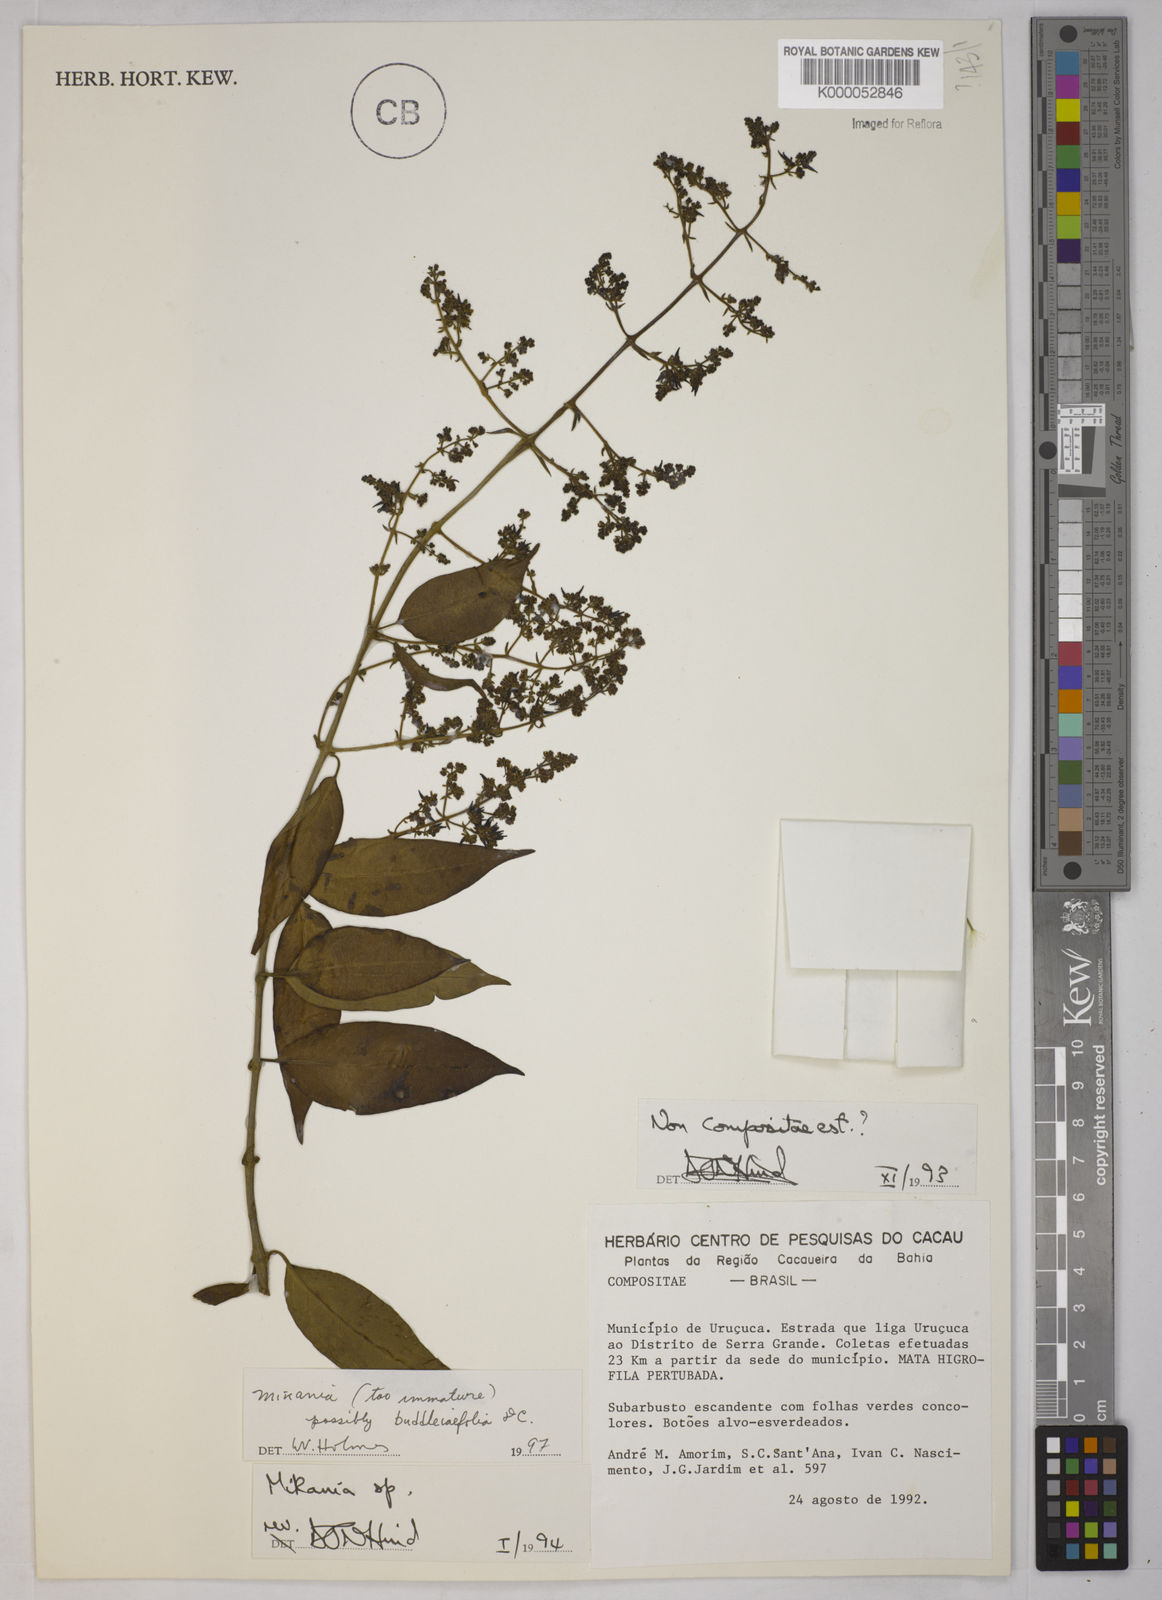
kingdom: Plantae
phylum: Tracheophyta
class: Magnoliopsida
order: Asterales
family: Asteraceae
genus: Mikania
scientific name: Mikania
